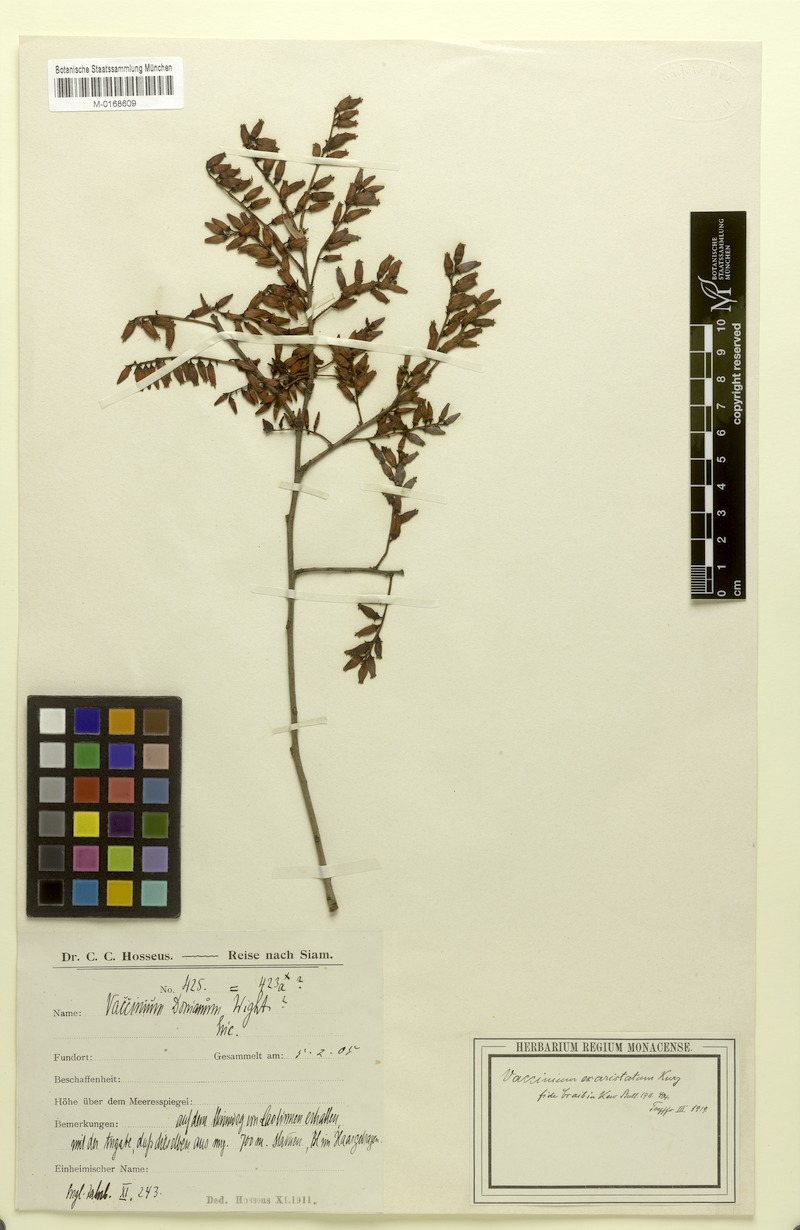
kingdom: Plantae
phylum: Tracheophyta
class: Magnoliopsida
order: Ericales
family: Ericaceae
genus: Vaccinium
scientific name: Vaccinium exaristatum
